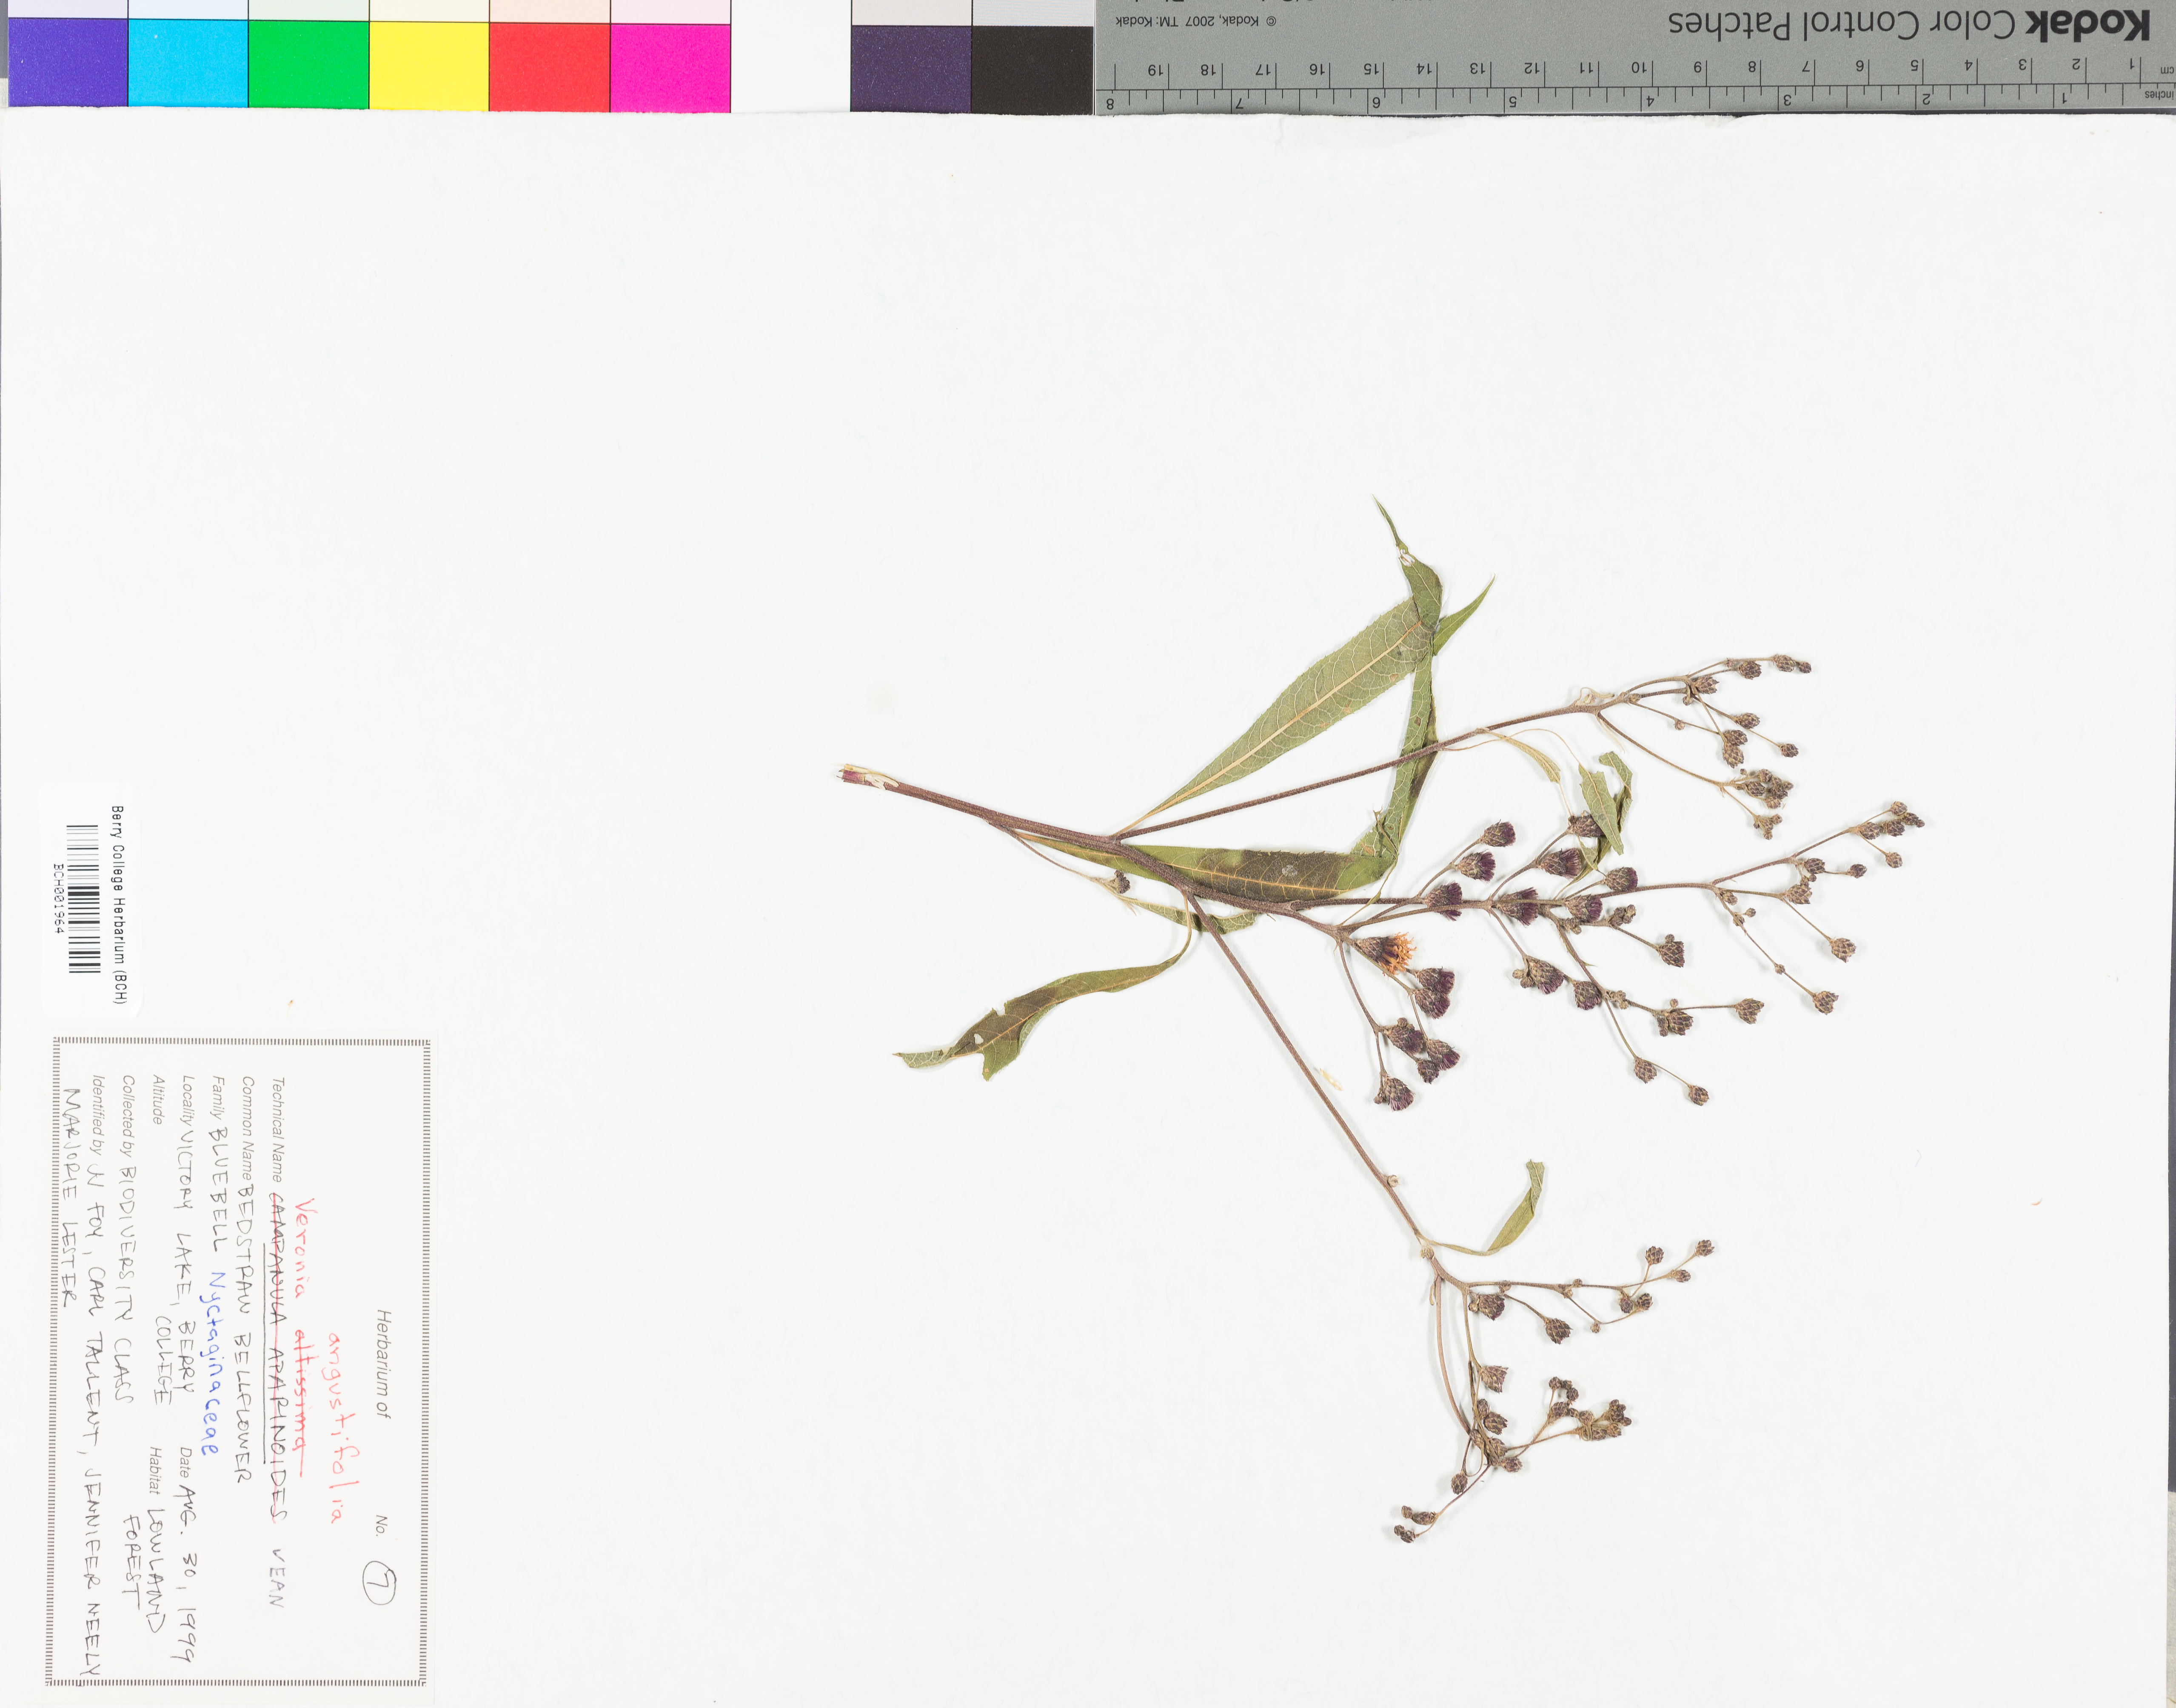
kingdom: Plantae
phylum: Tracheophyta
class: Magnoliopsida
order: Asterales
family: Asteraceae
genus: Vernonia
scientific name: Vernonia angustifolia
